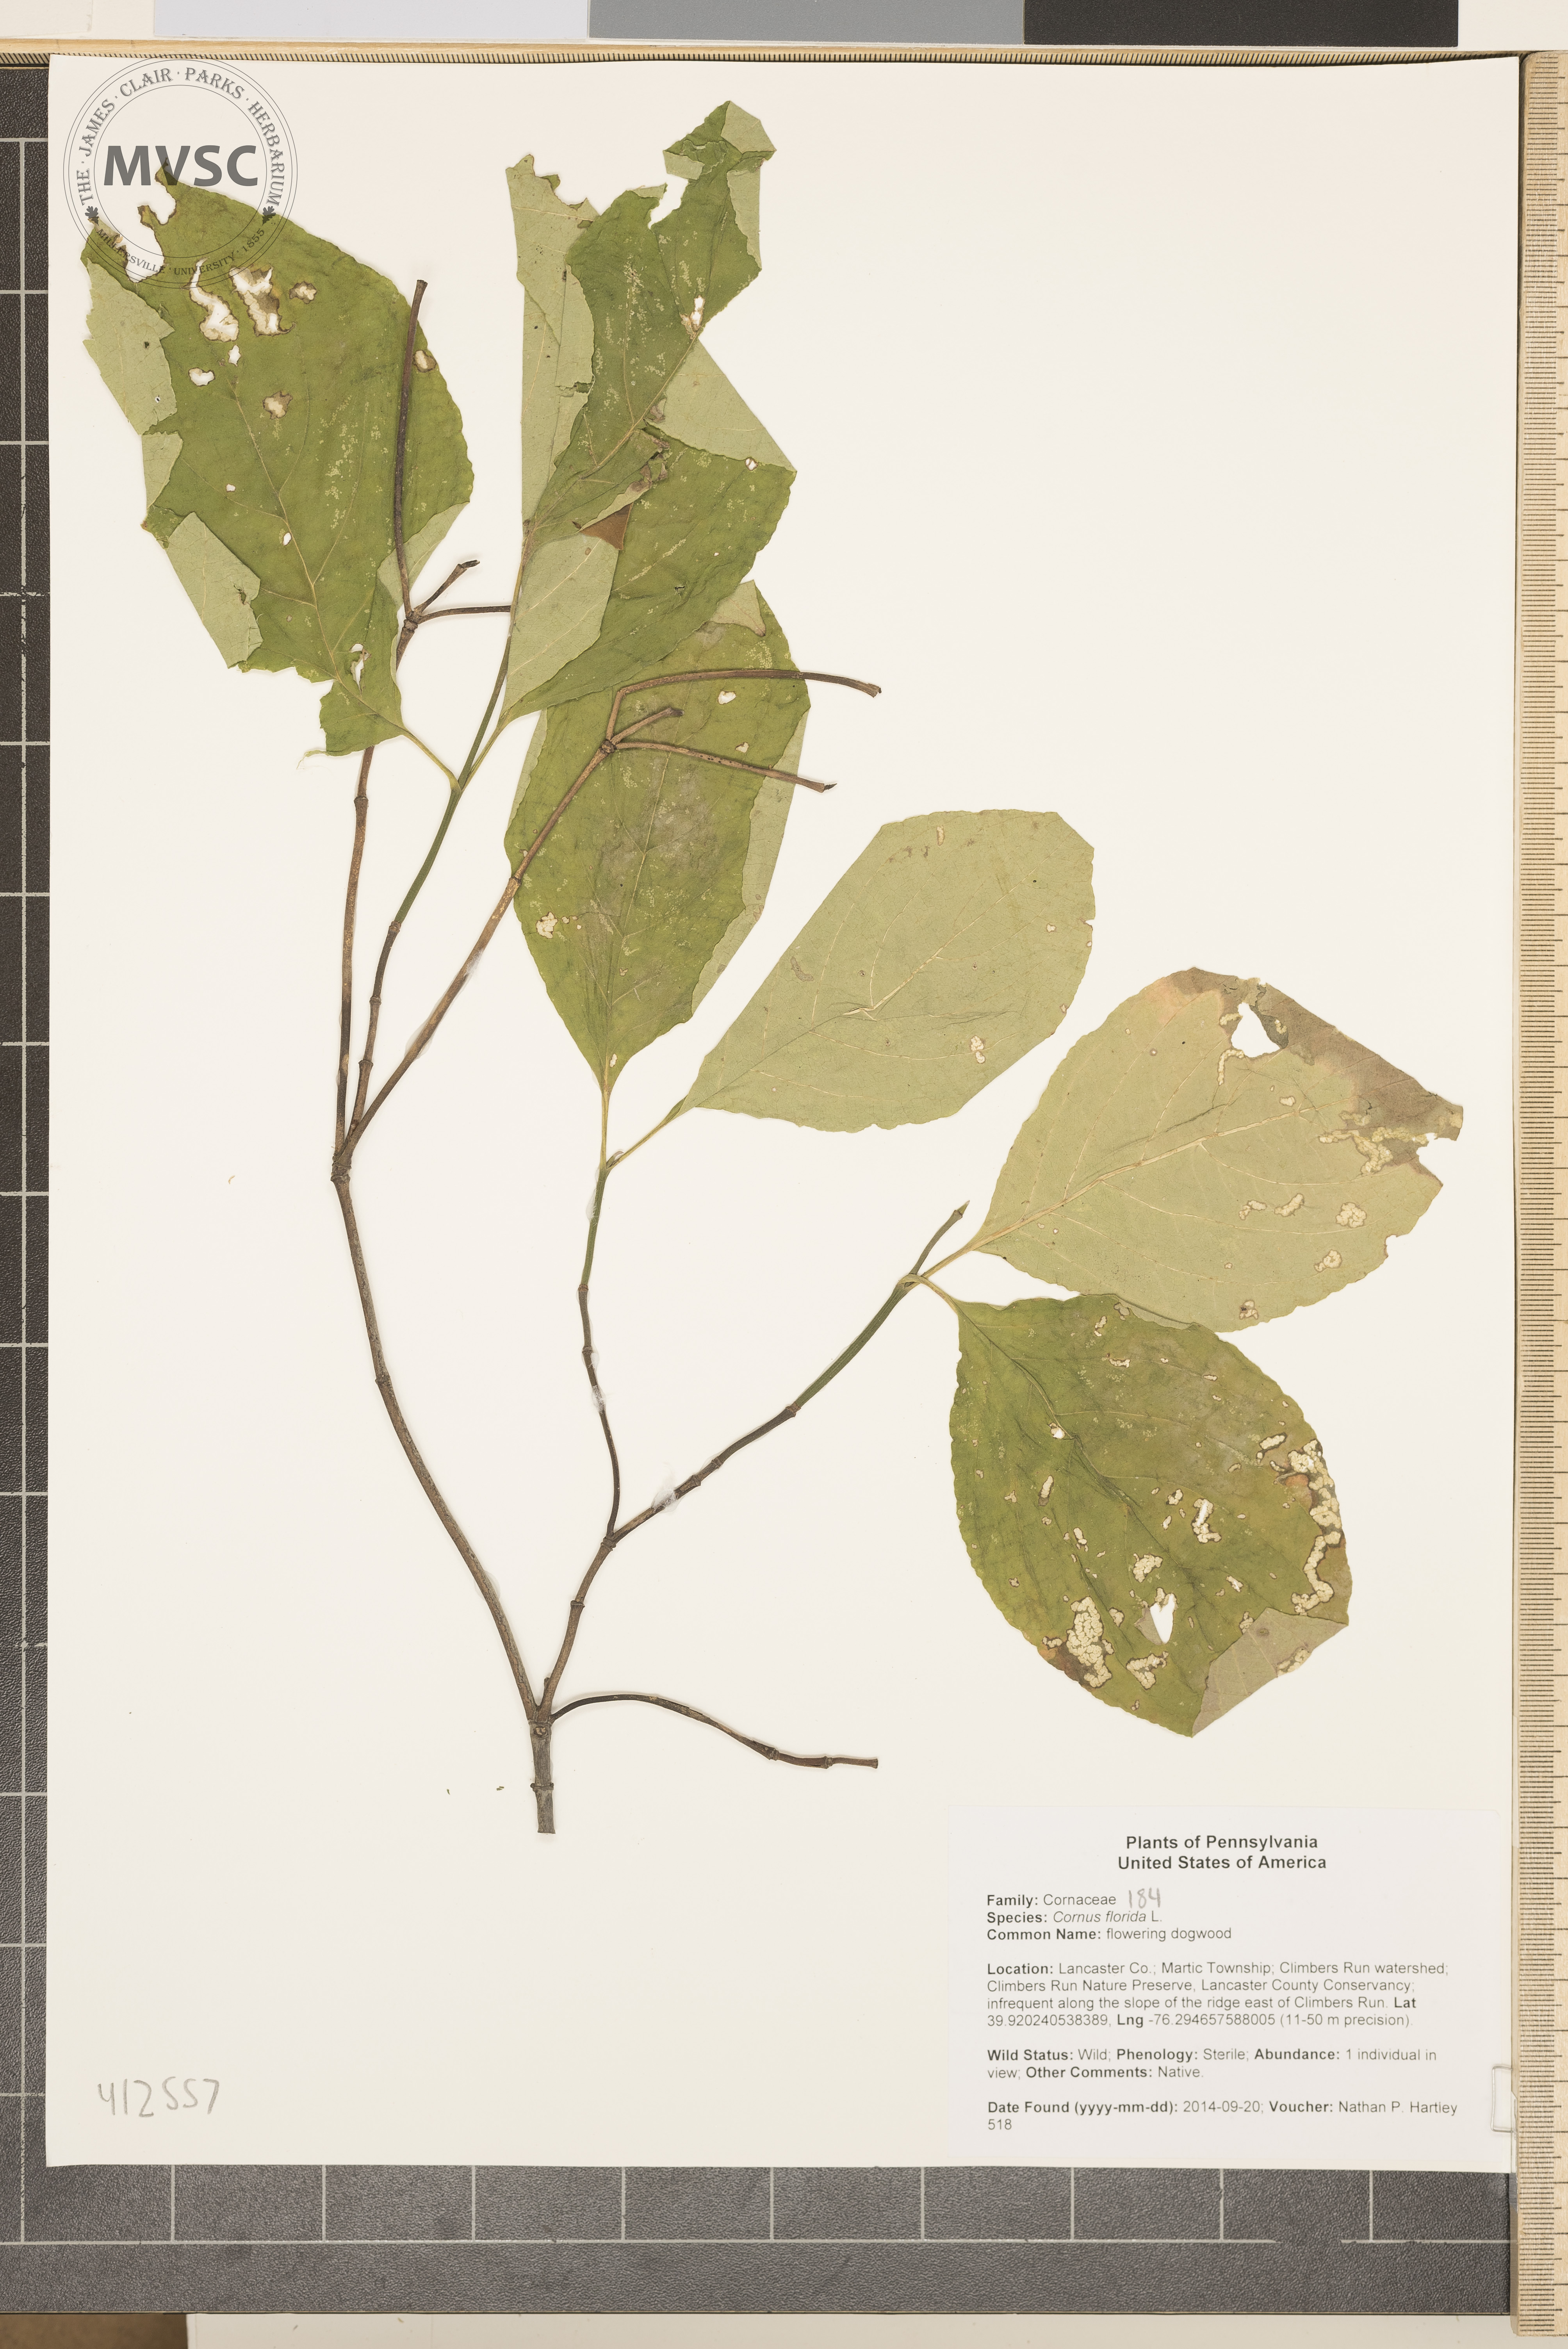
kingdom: Plantae
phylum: Tracheophyta
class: Magnoliopsida
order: Cornales
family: Cornaceae
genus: Cornus
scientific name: Cornus florida
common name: flowering dogwood
